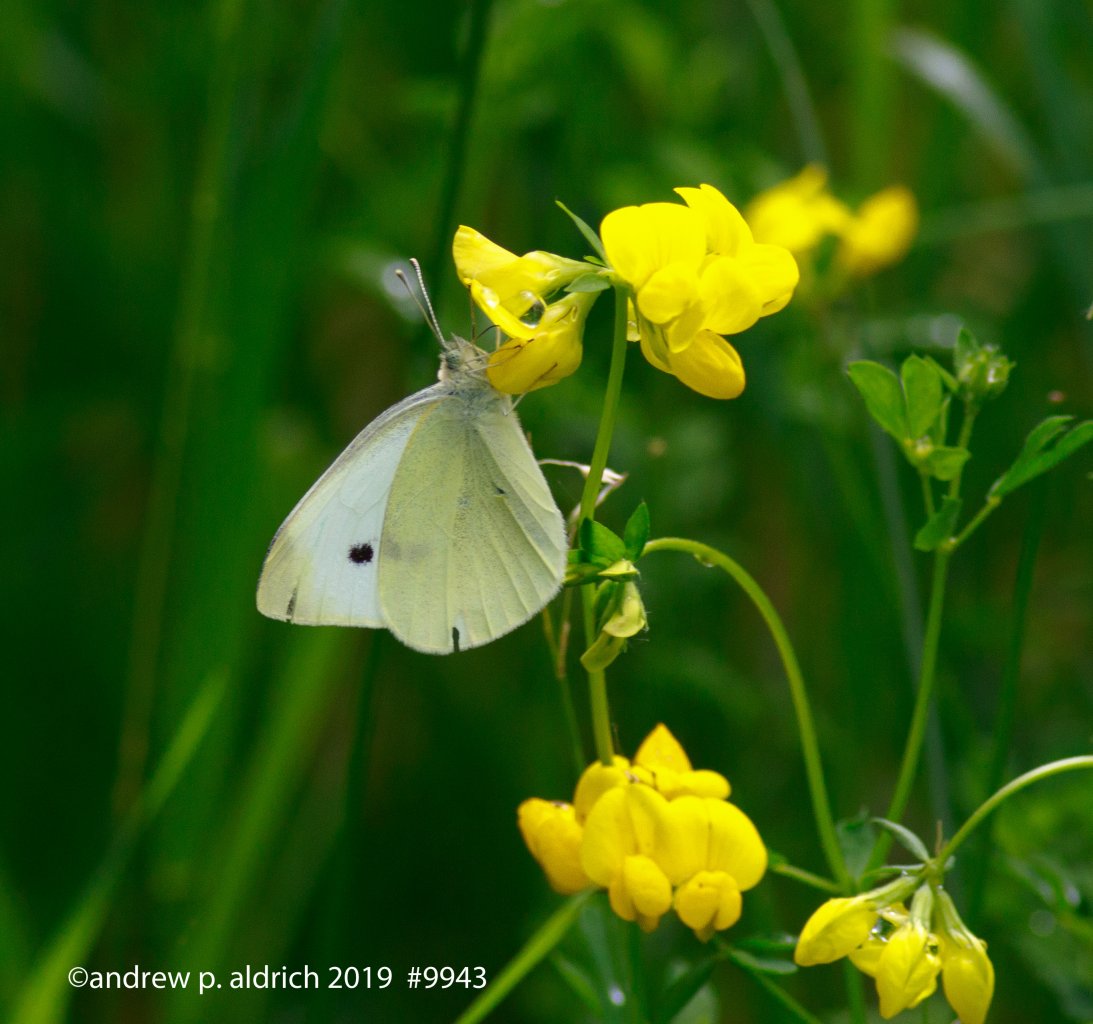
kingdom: Animalia
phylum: Arthropoda
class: Insecta
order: Lepidoptera
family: Pieridae
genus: Pieris
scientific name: Pieris rapae
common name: Cabbage White
